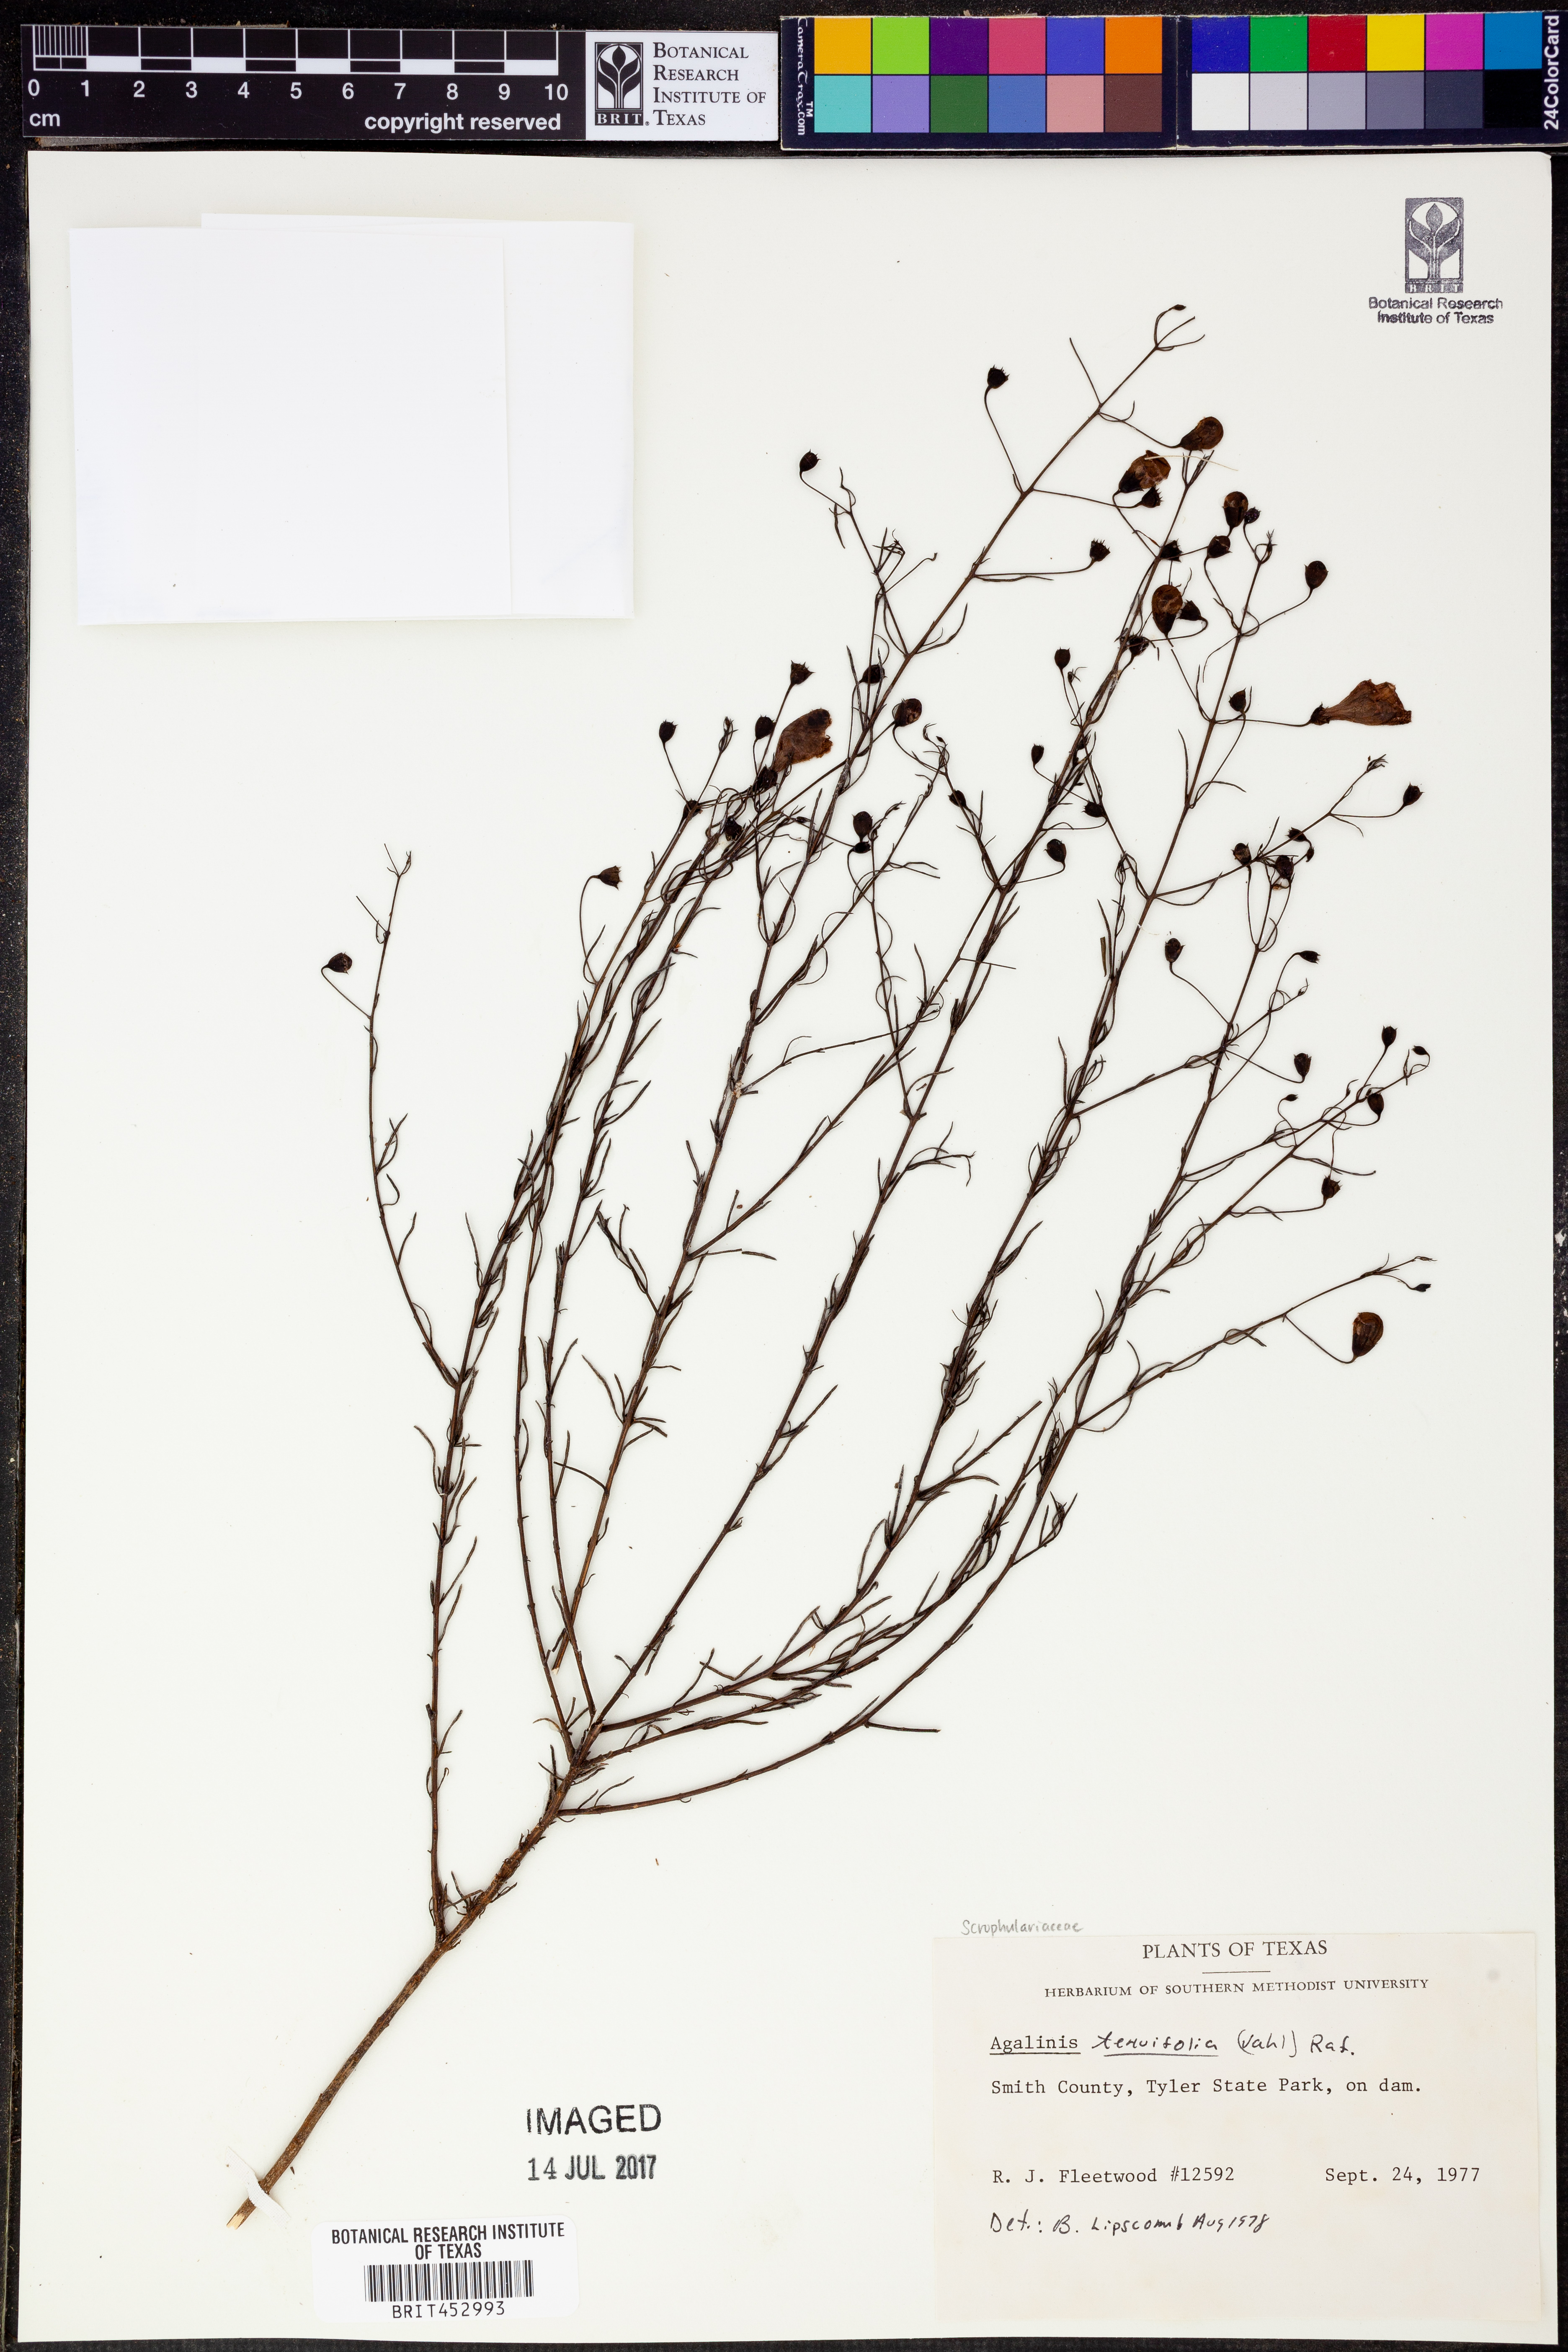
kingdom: Plantae
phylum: Tracheophyta
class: Magnoliopsida
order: Lamiales
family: Orobanchaceae
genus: Agalinis
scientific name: Agalinis tenuifolia
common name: Slender agalinis
